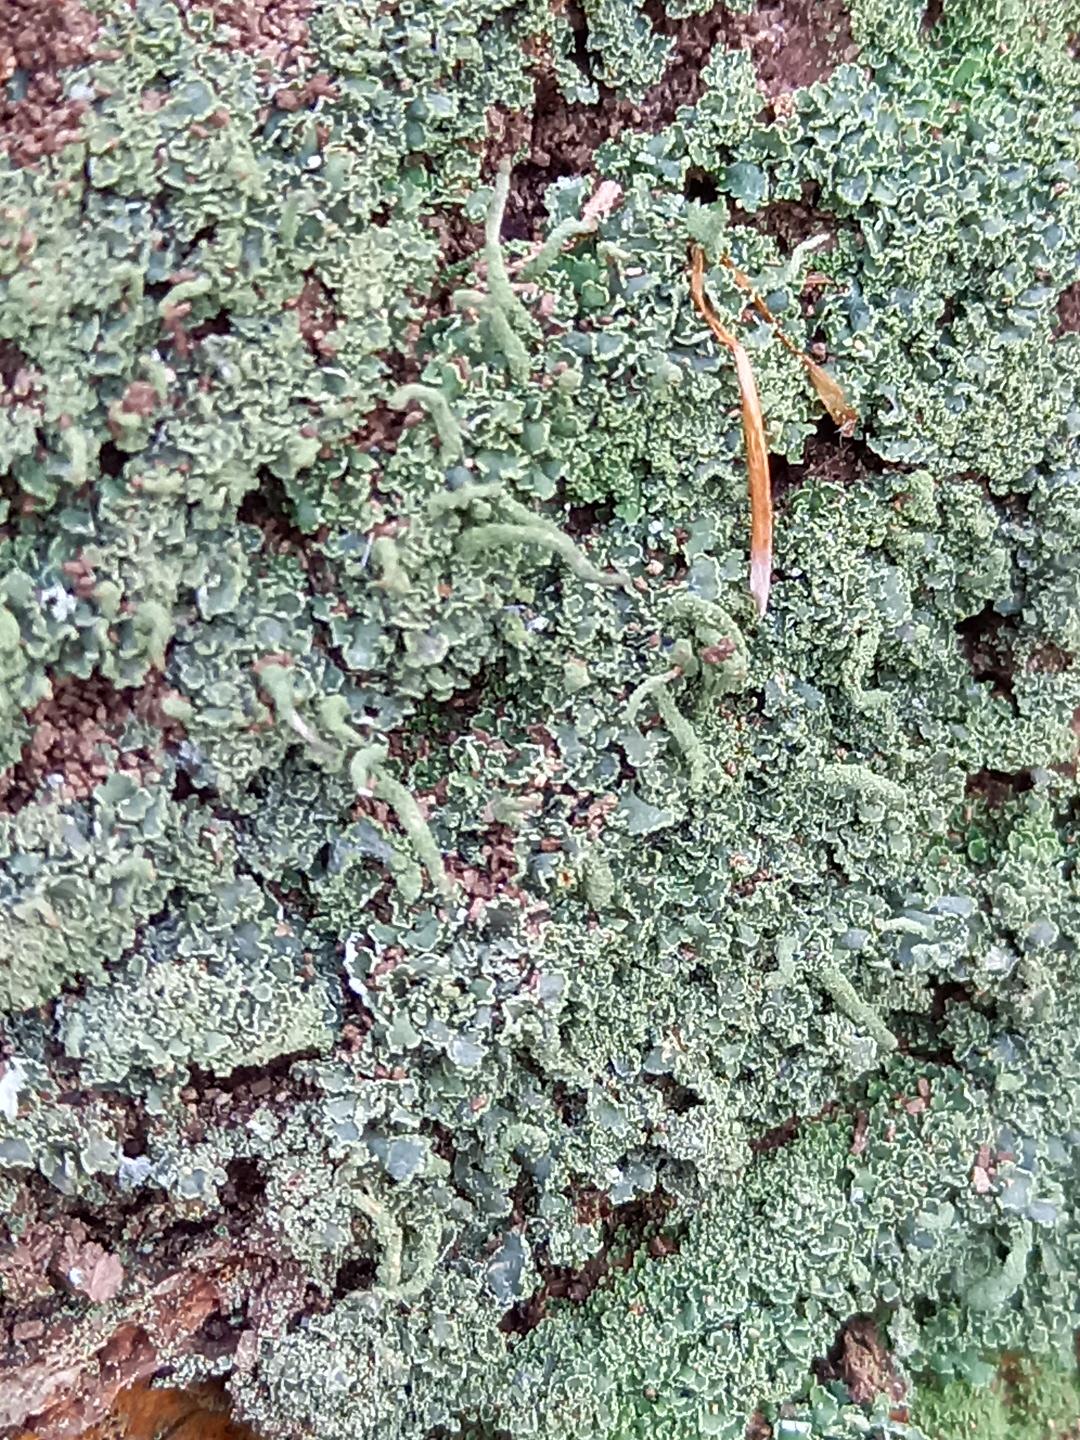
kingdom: Fungi
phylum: Ascomycota
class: Lecanoromycetes
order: Lecanorales
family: Cladoniaceae
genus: Cladonia
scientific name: Cladonia coniocraea
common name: træfods-bægerlav
